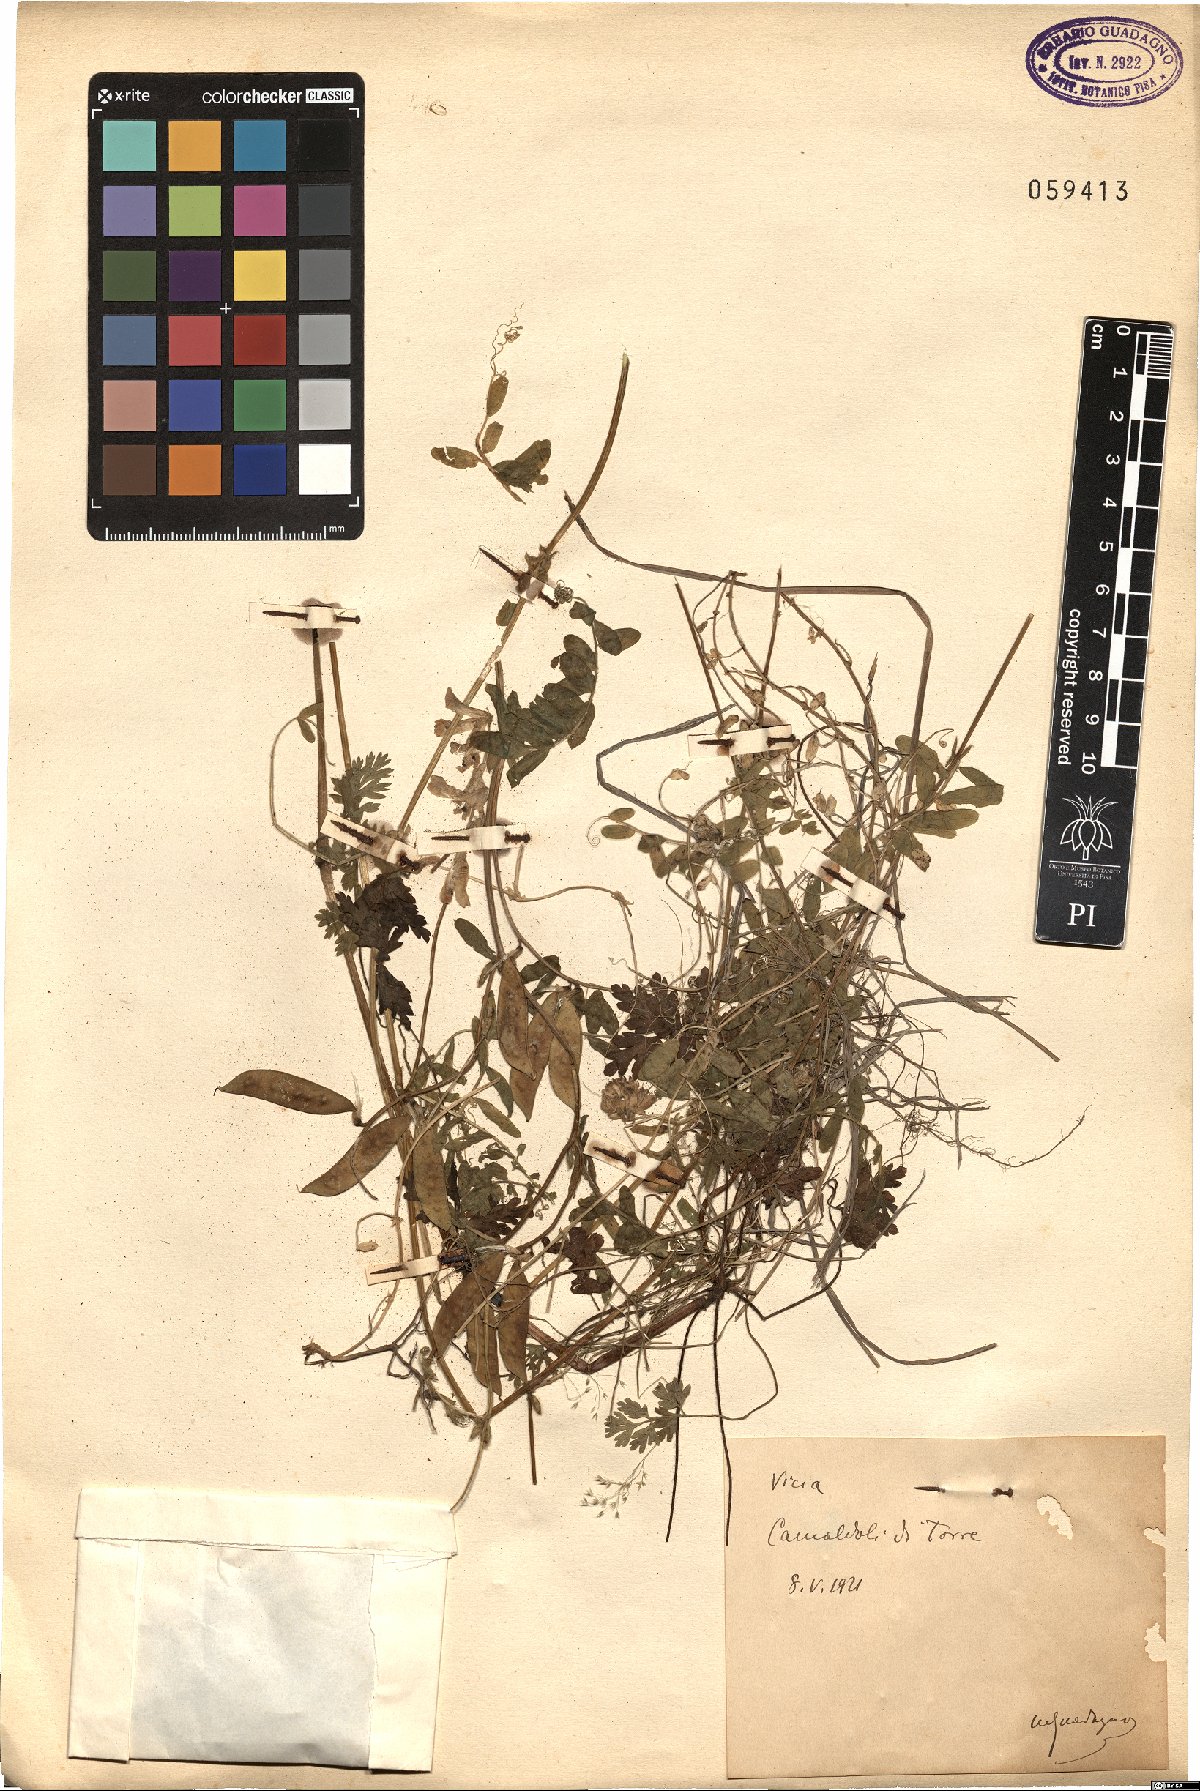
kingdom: Plantae
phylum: Tracheophyta
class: Magnoliopsida
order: Fabales
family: Fabaceae
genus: Vicia
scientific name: Vicia
